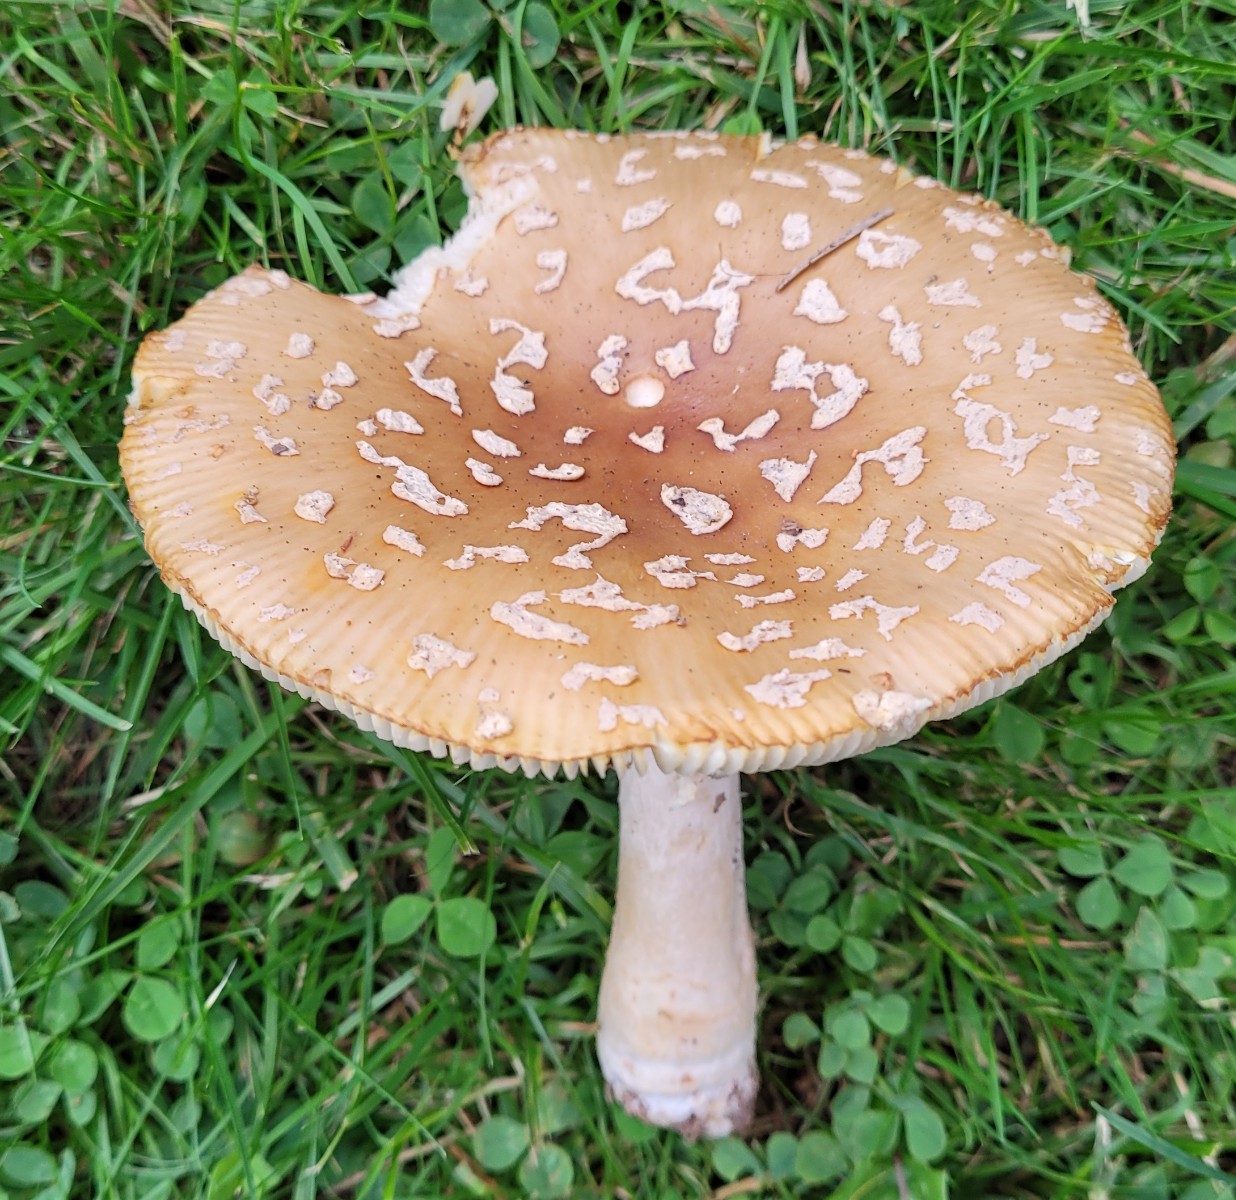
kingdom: Fungi
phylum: Basidiomycota
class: Agaricomycetes
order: Agaricales
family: Amanitaceae
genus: Amanita
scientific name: Amanita regalis
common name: brun fluesvamp
